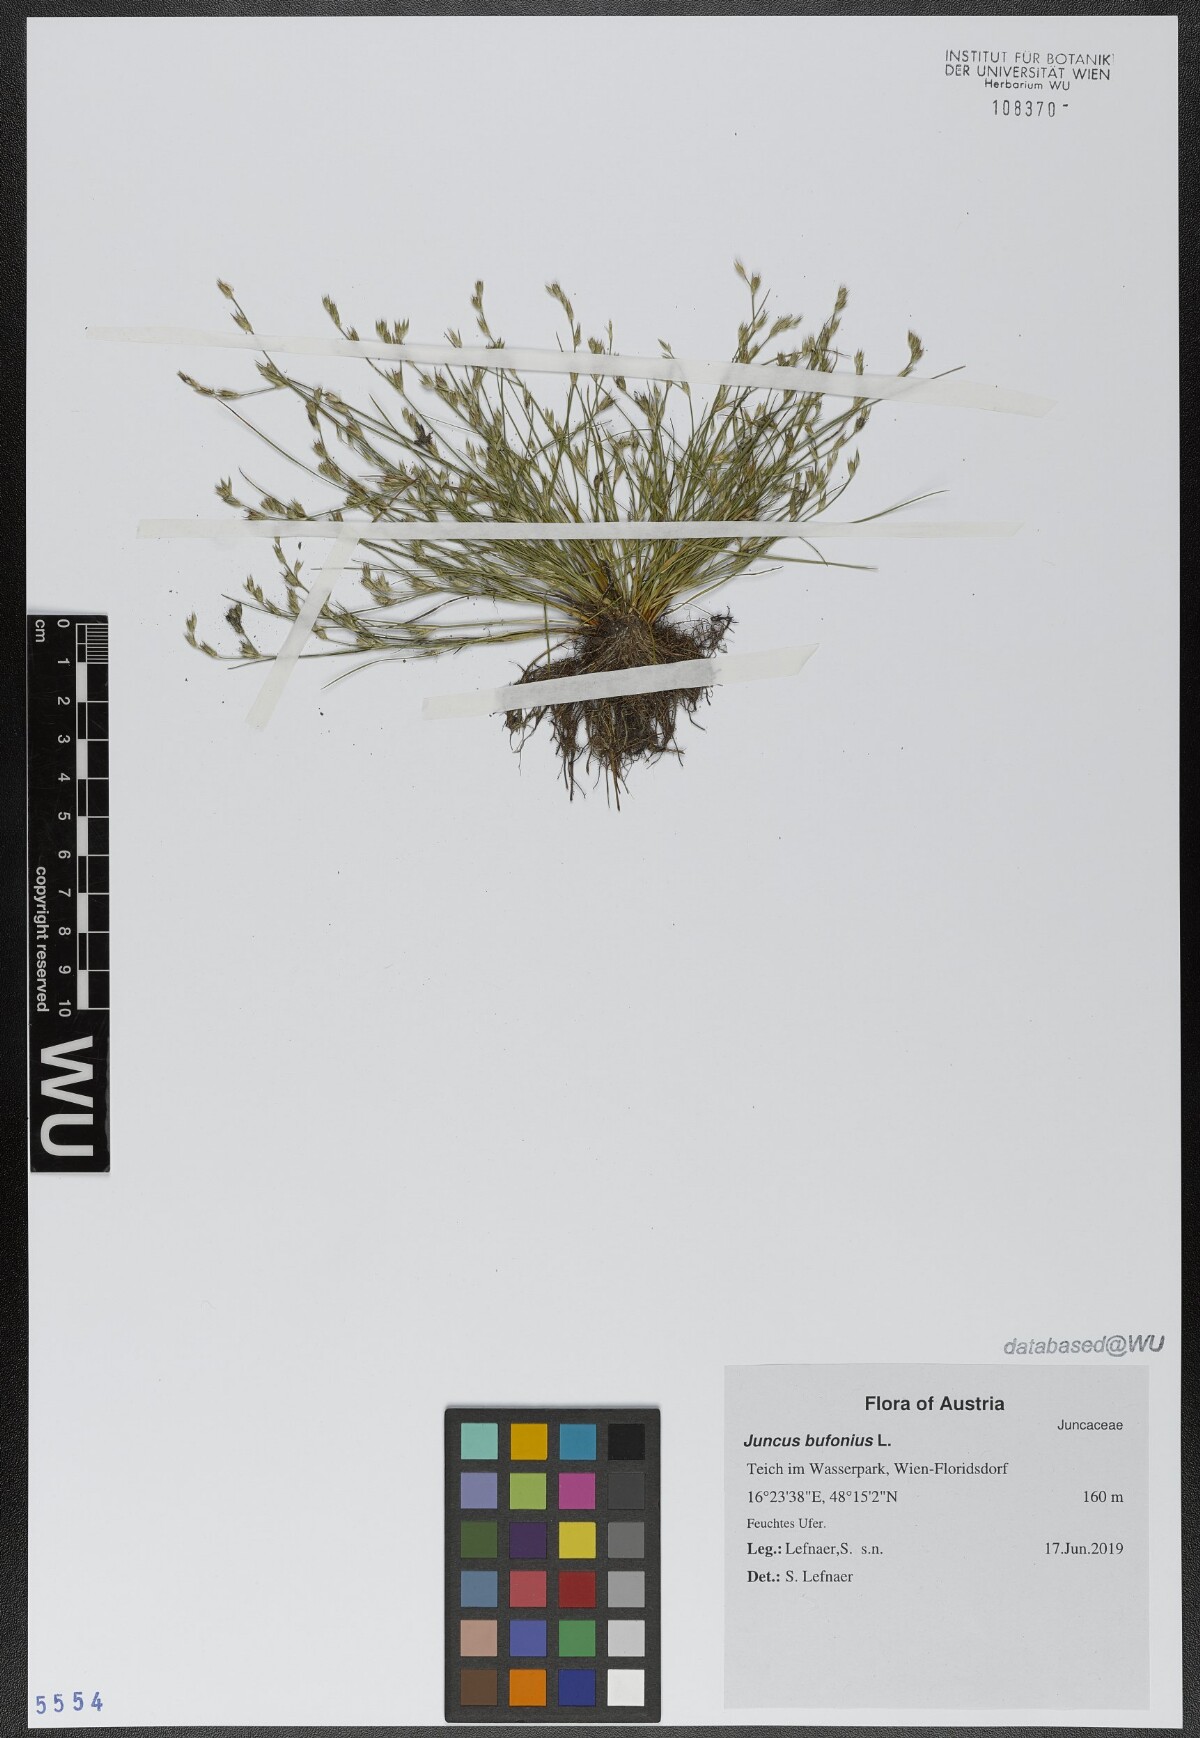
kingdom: Plantae
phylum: Tracheophyta
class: Liliopsida
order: Poales
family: Juncaceae
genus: Juncus
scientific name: Juncus bufonius
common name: Toad rush
